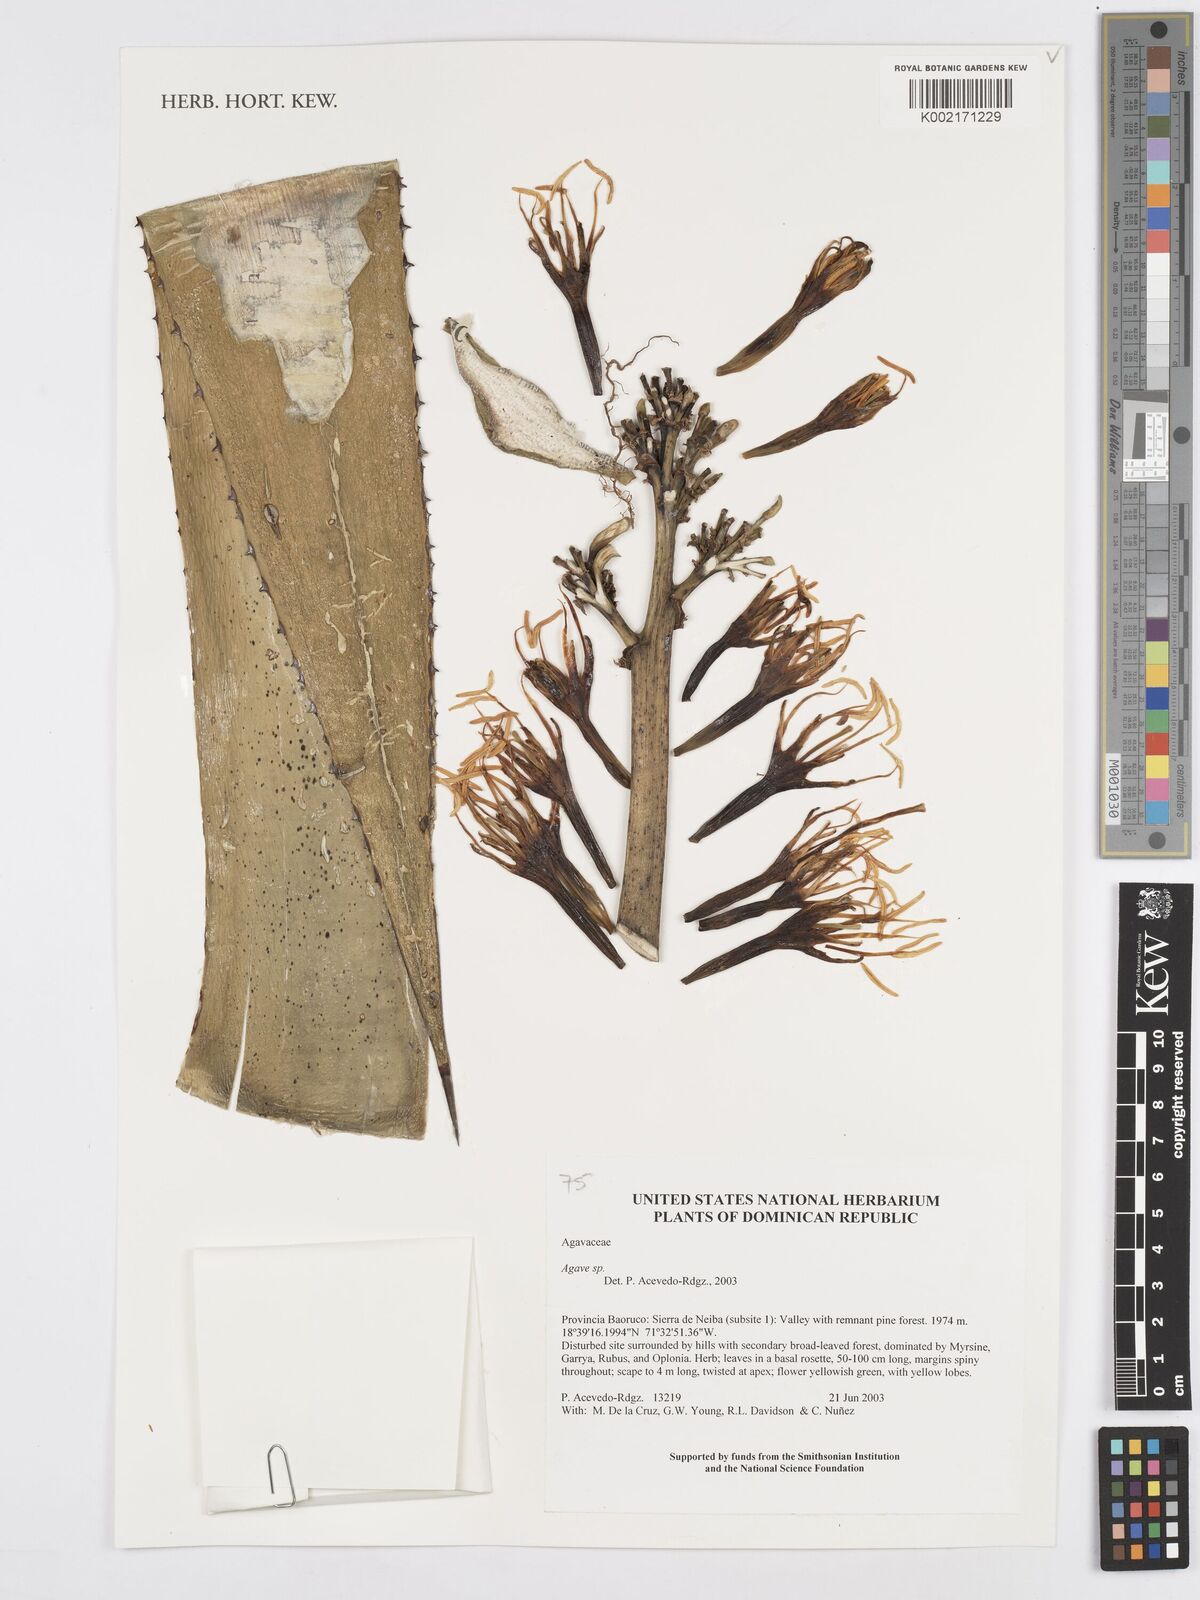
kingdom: Plantae
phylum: Tracheophyta
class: Liliopsida
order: Asparagales
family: Asparagaceae
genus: Agave
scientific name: Agave
